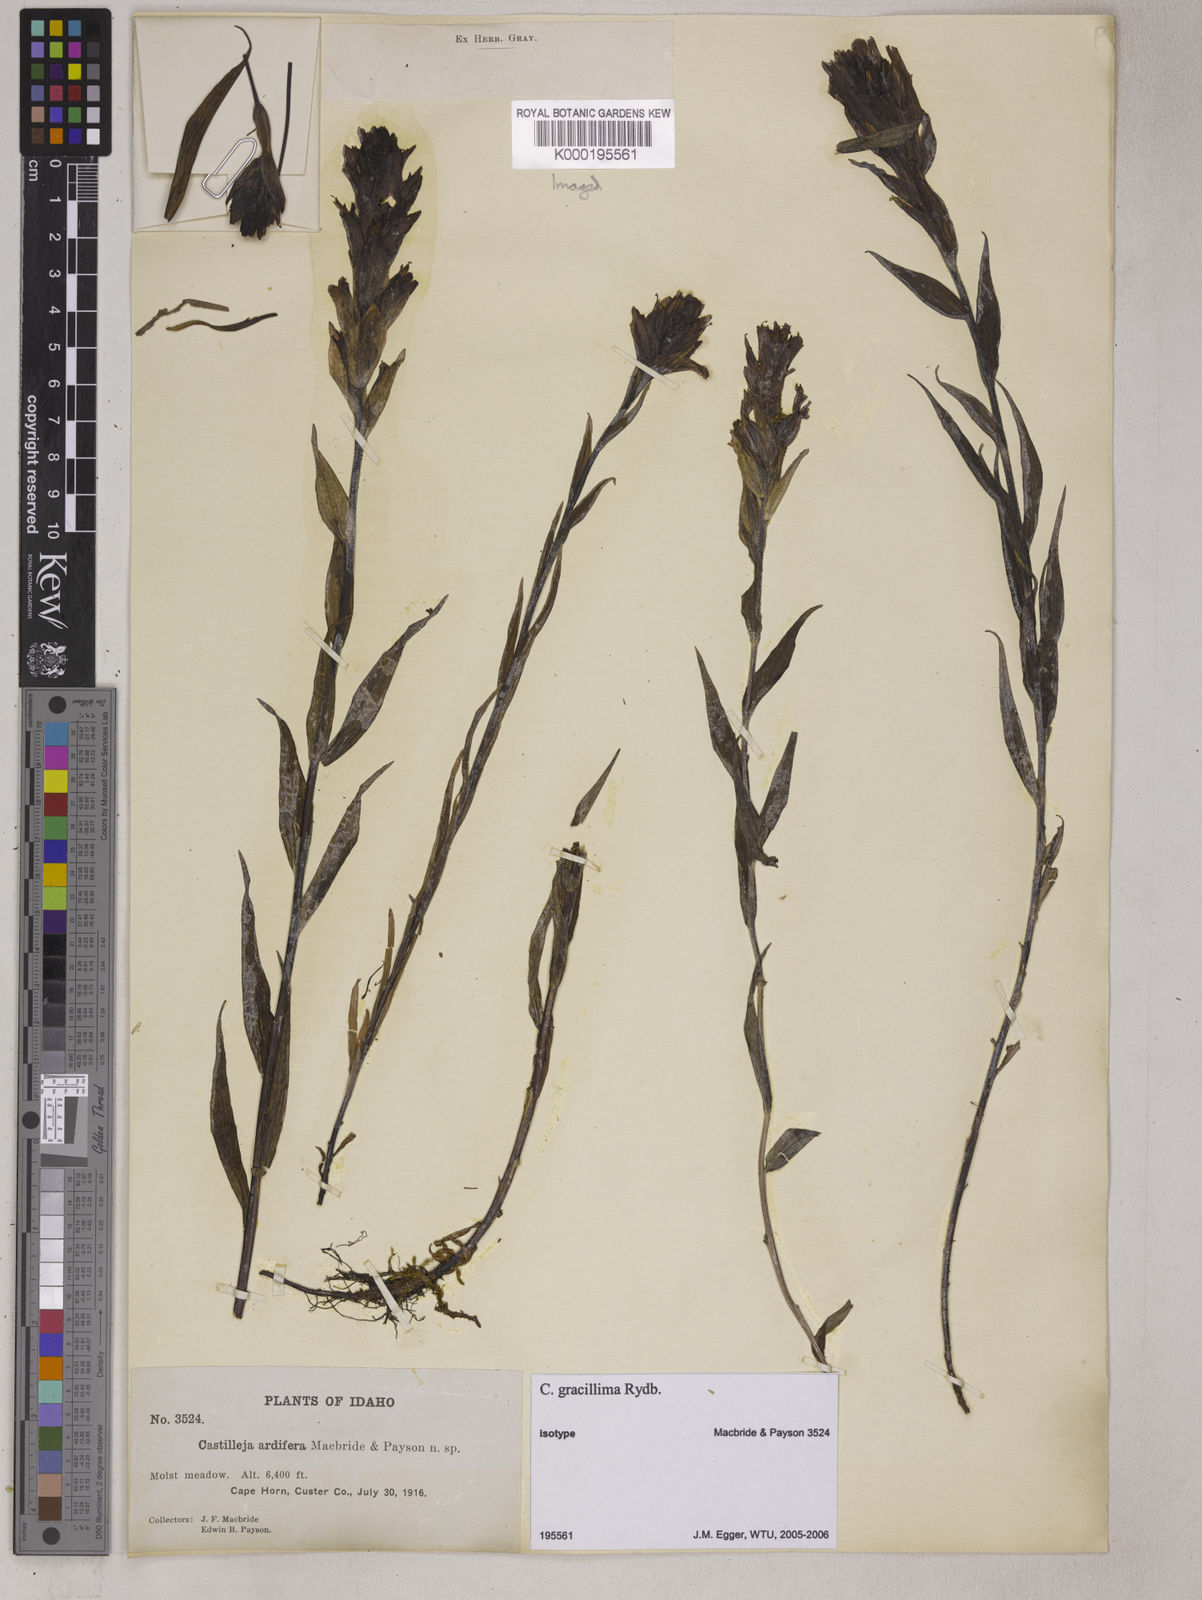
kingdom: Plantae
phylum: Tracheophyta
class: Magnoliopsida
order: Lamiales
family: Orobanchaceae
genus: Castilleja
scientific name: Castilleja gracillima
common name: Slender paintbrush
